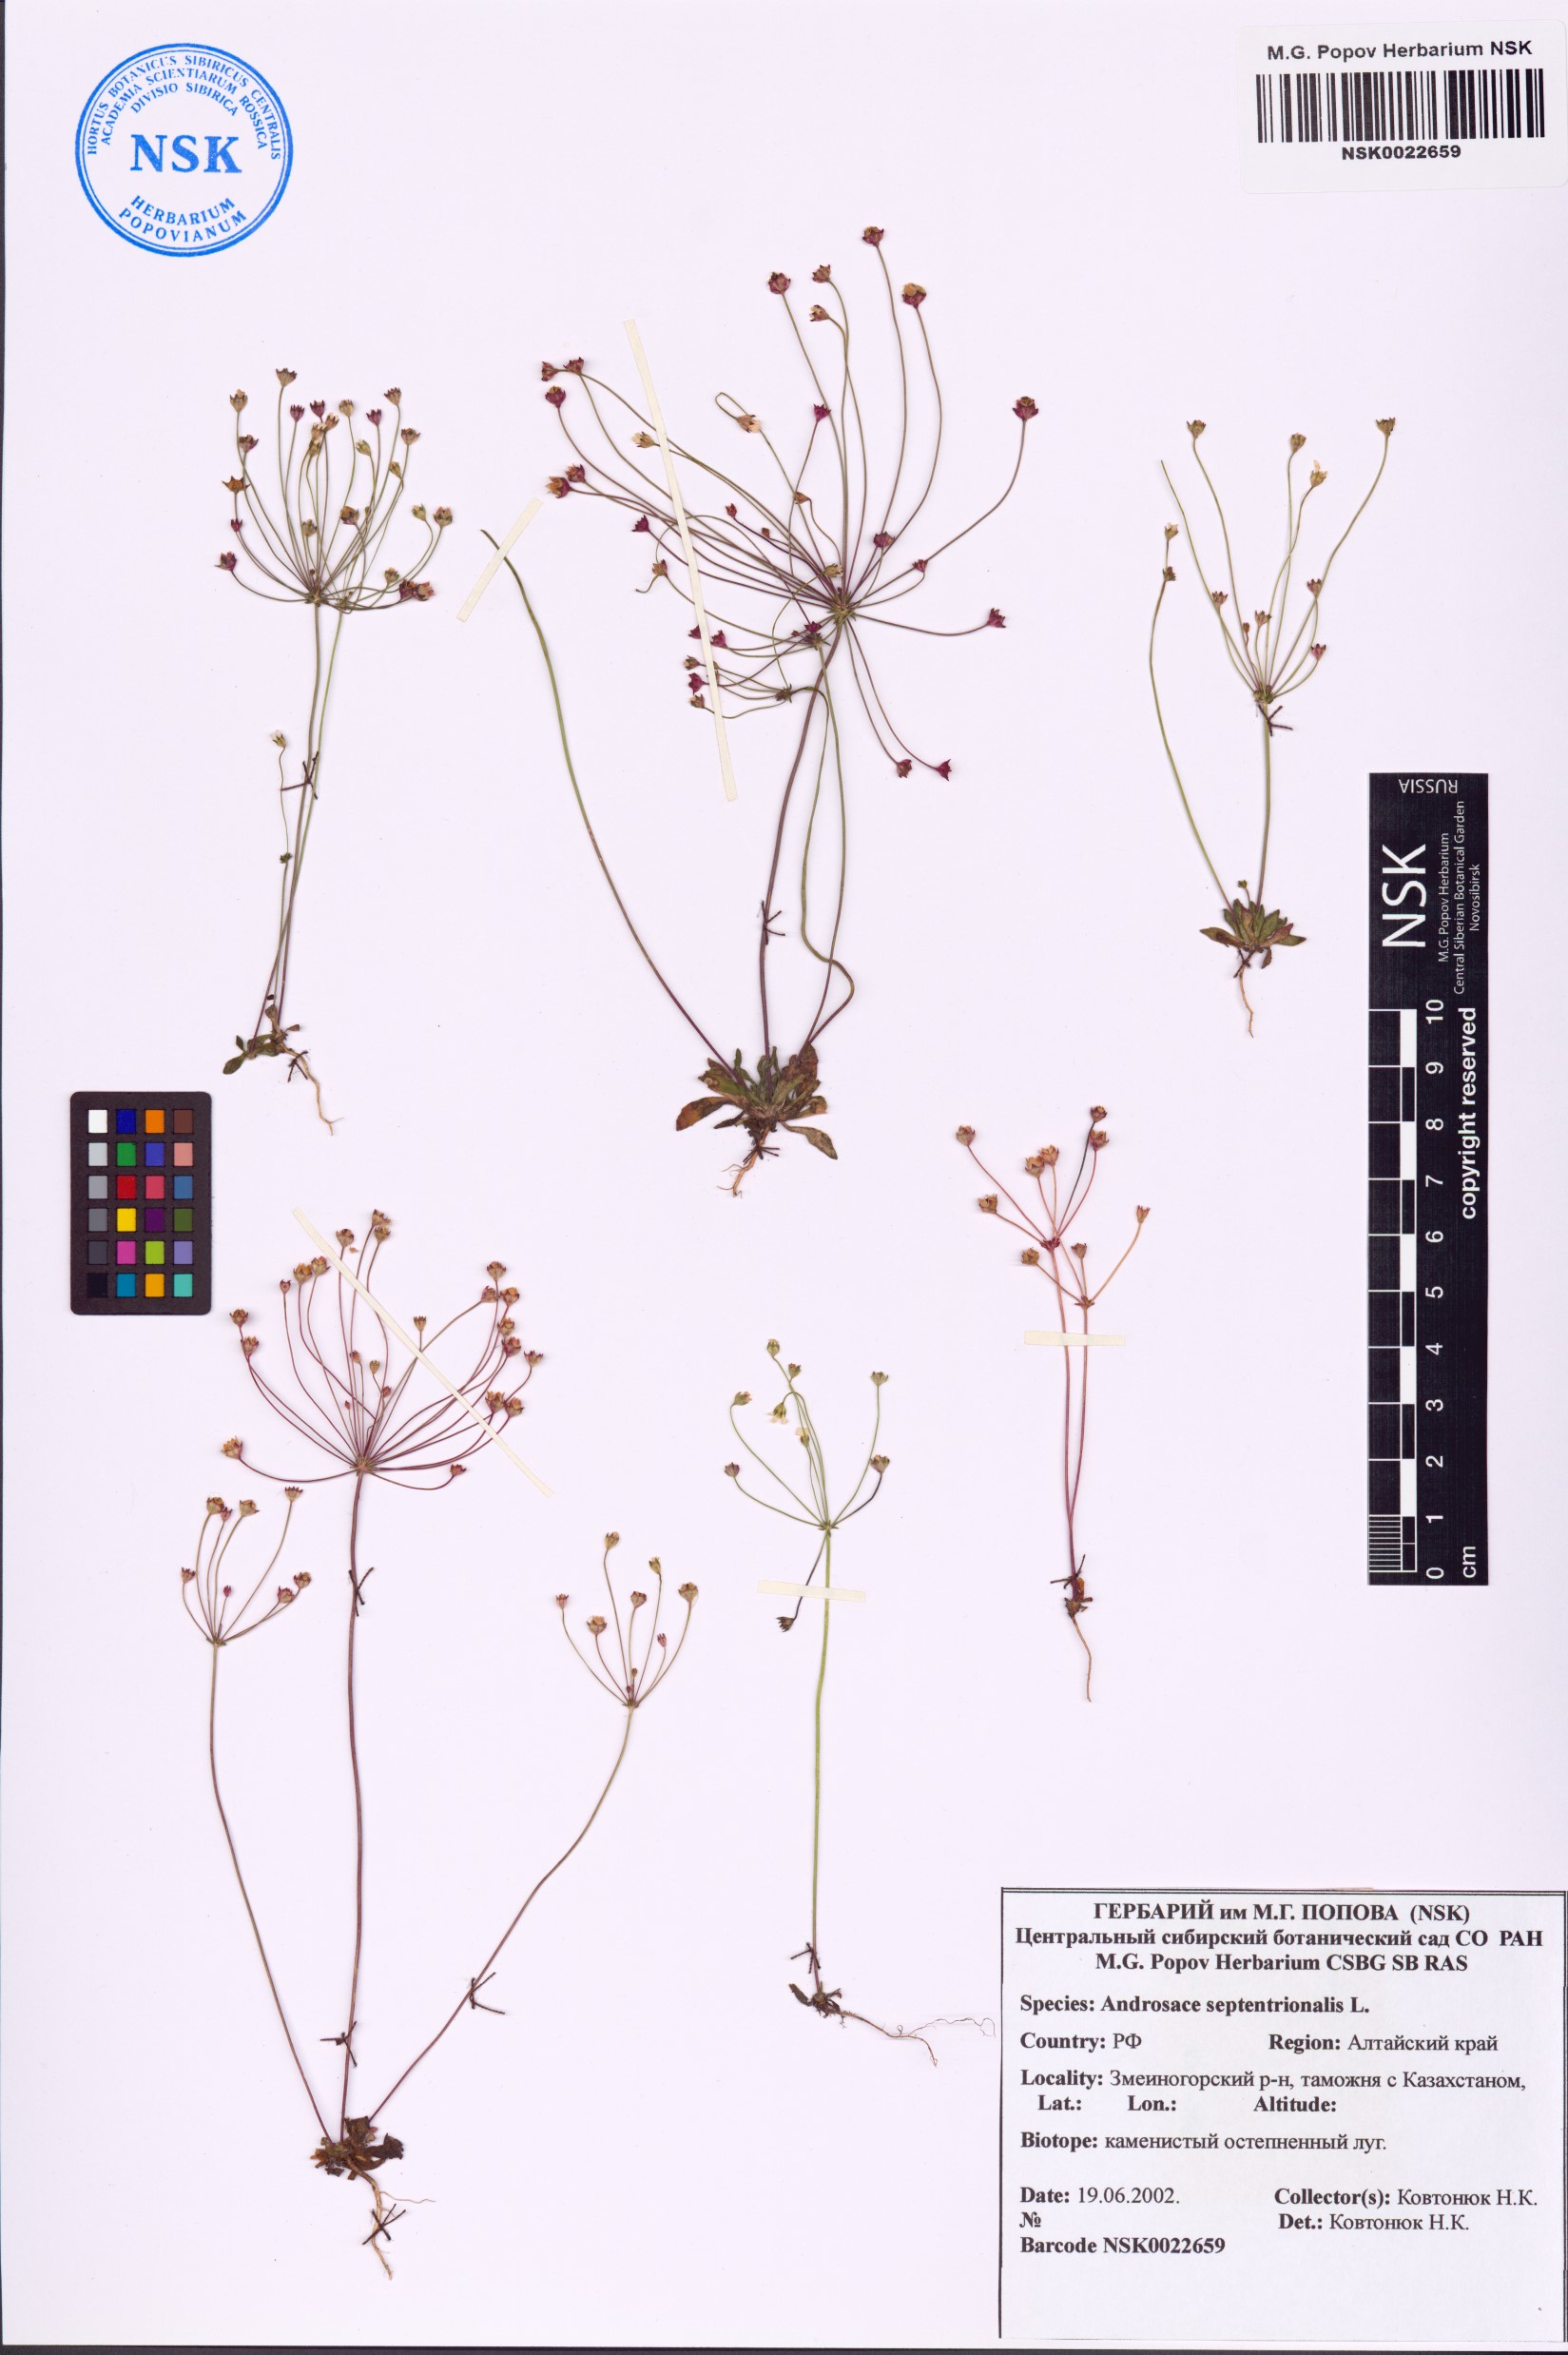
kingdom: Plantae
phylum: Tracheophyta
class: Magnoliopsida
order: Ericales
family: Primulaceae
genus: Androsace
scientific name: Androsace septentrionalis
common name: Hairy northern fairy-candelabra
